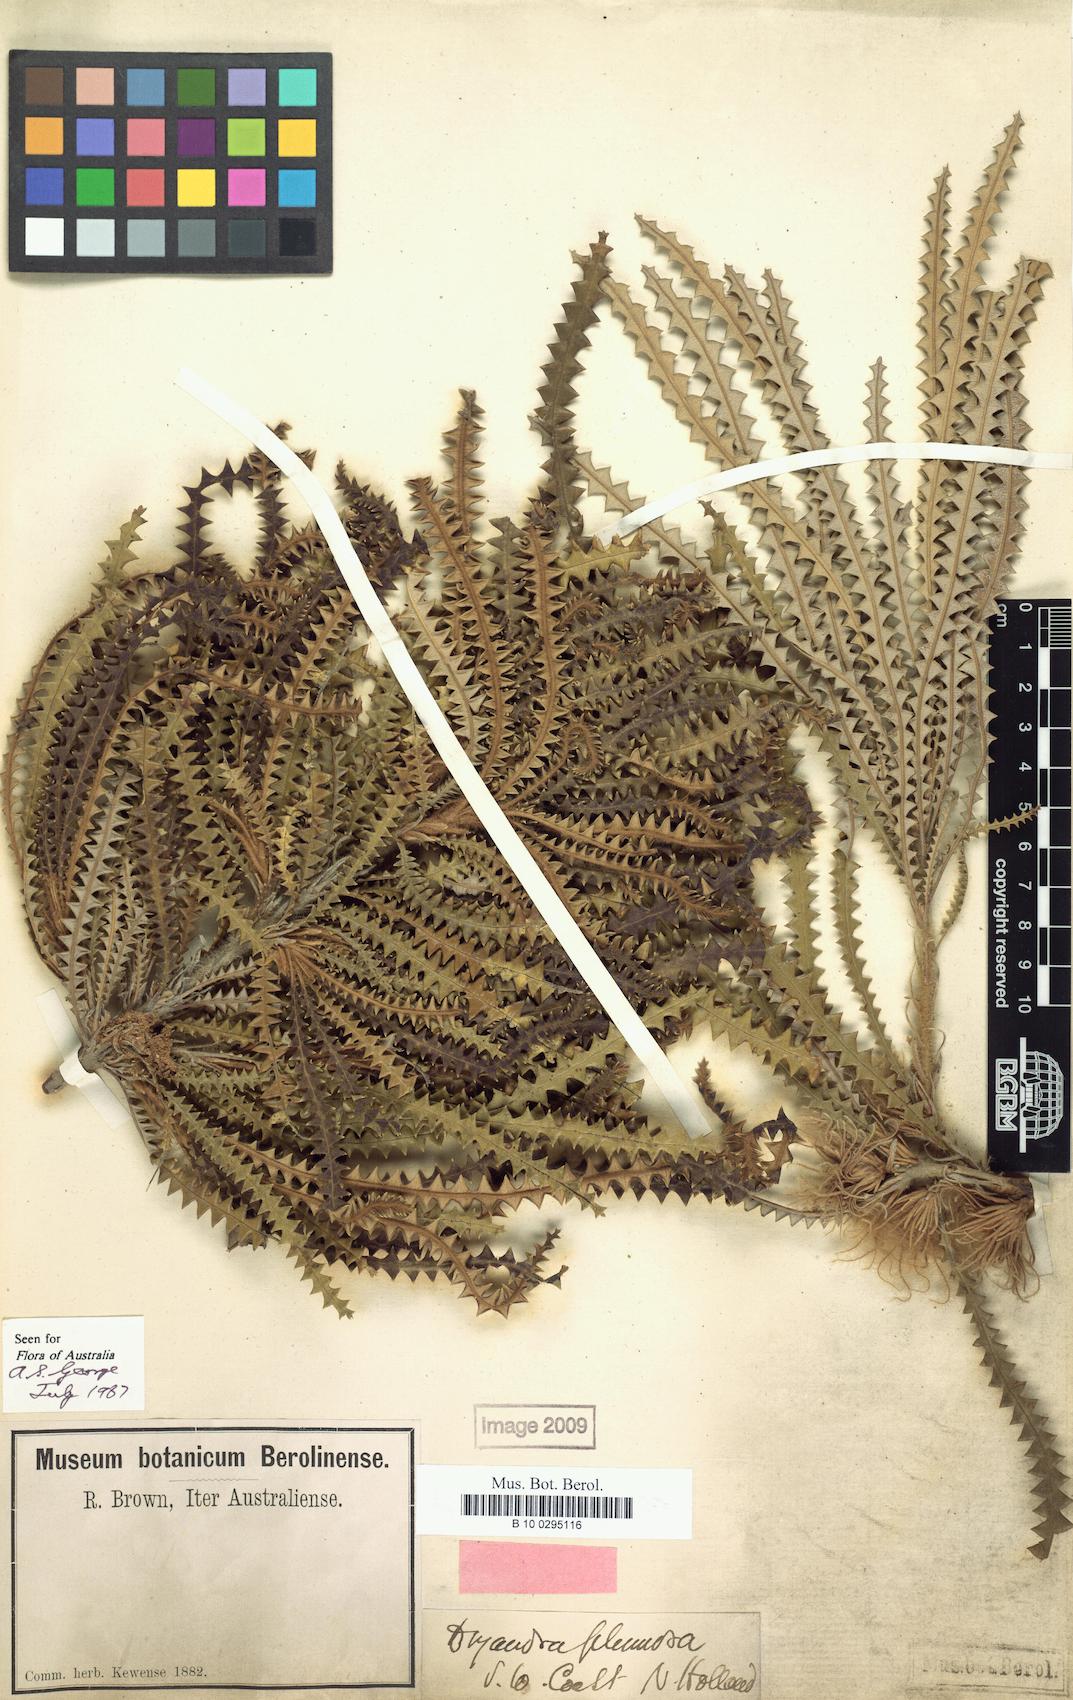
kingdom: Plantae
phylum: Tracheophyta
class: Magnoliopsida
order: Proteales
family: Proteaceae
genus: Banksia
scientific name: Banksia plumosa
